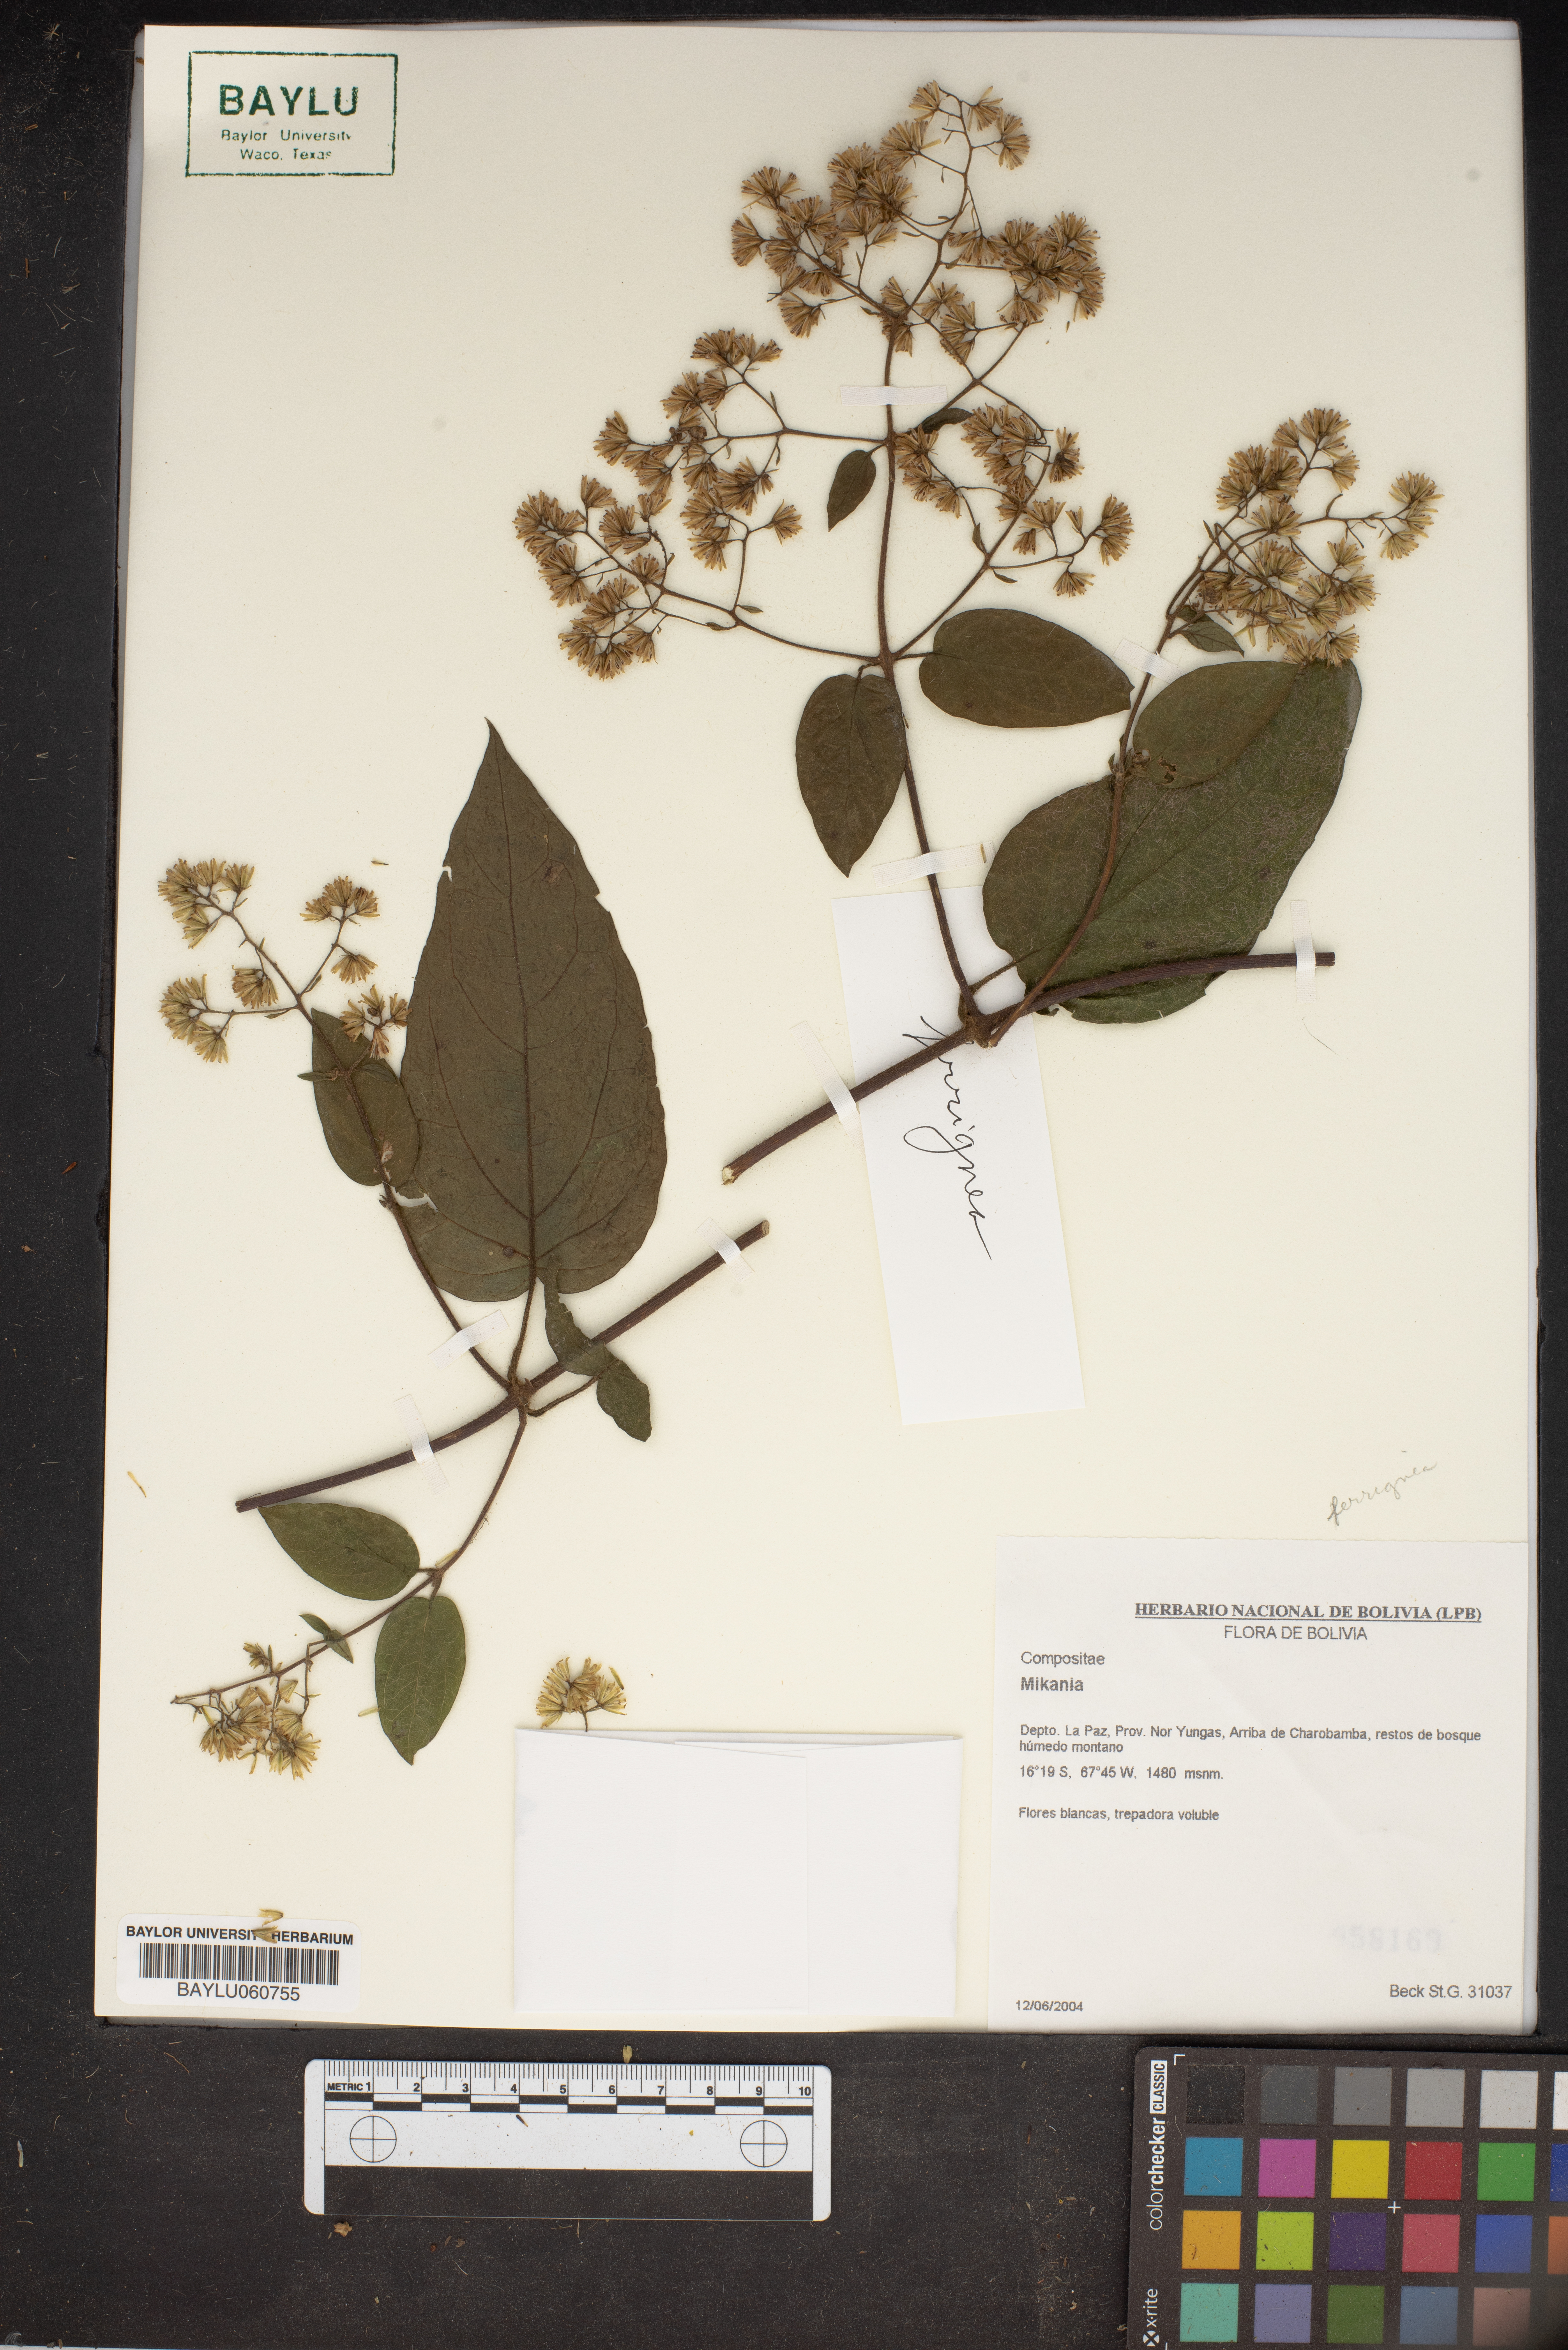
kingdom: Plantae
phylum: Tracheophyta
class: Magnoliopsida
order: Asterales
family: Asteraceae
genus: Mikania
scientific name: Mikania
